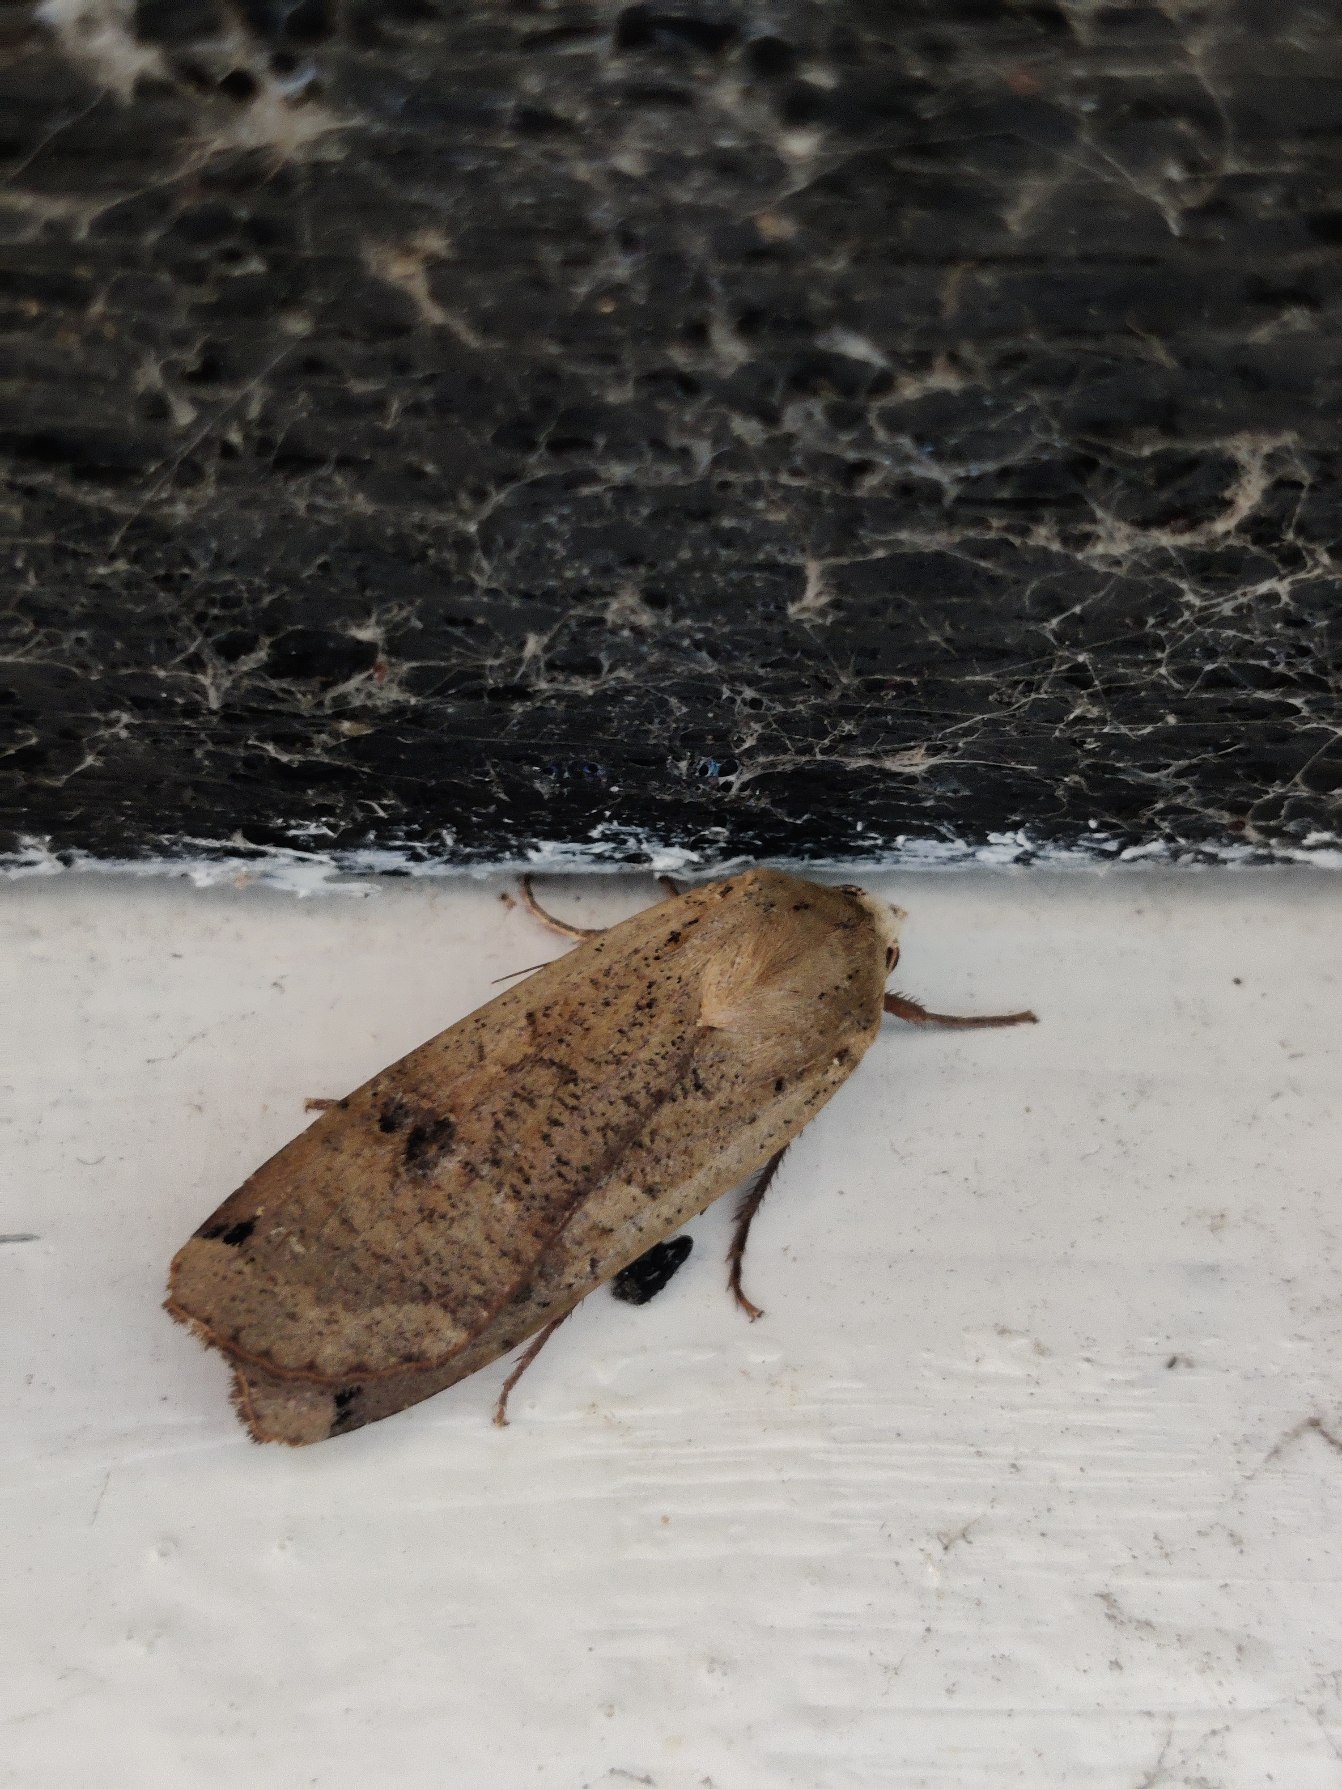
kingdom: Animalia
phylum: Arthropoda
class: Insecta
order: Lepidoptera
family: Noctuidae
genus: Noctua
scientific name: Noctua pronuba
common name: Stor smutugle
